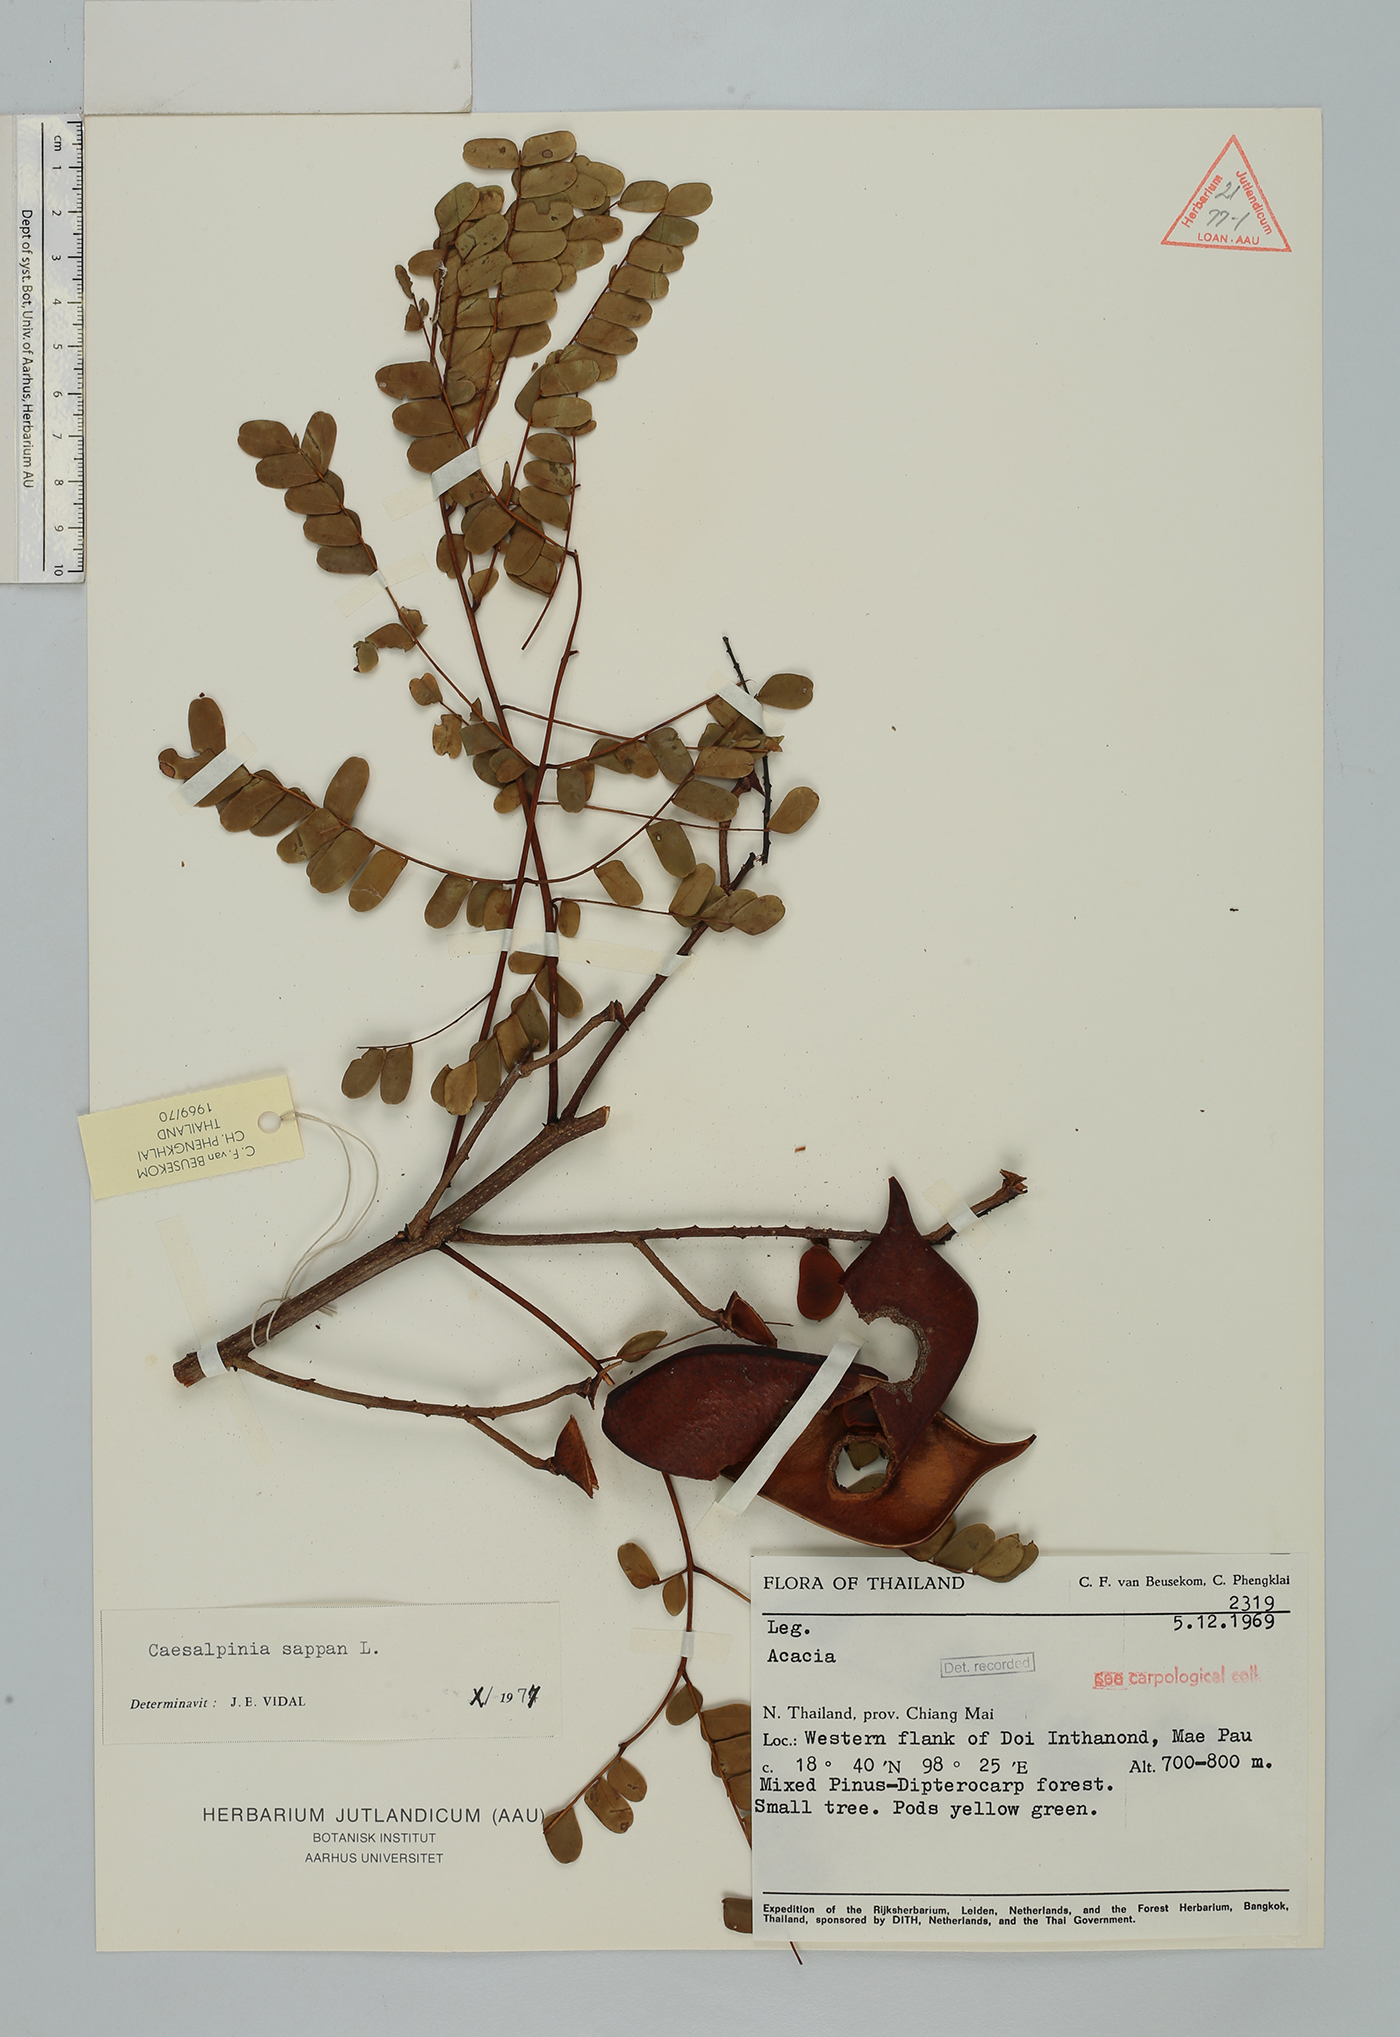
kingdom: Plantae
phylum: Tracheophyta
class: Magnoliopsida
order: Fabales
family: Fabaceae
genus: Biancaea
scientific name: Biancaea sappan
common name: Sappan
